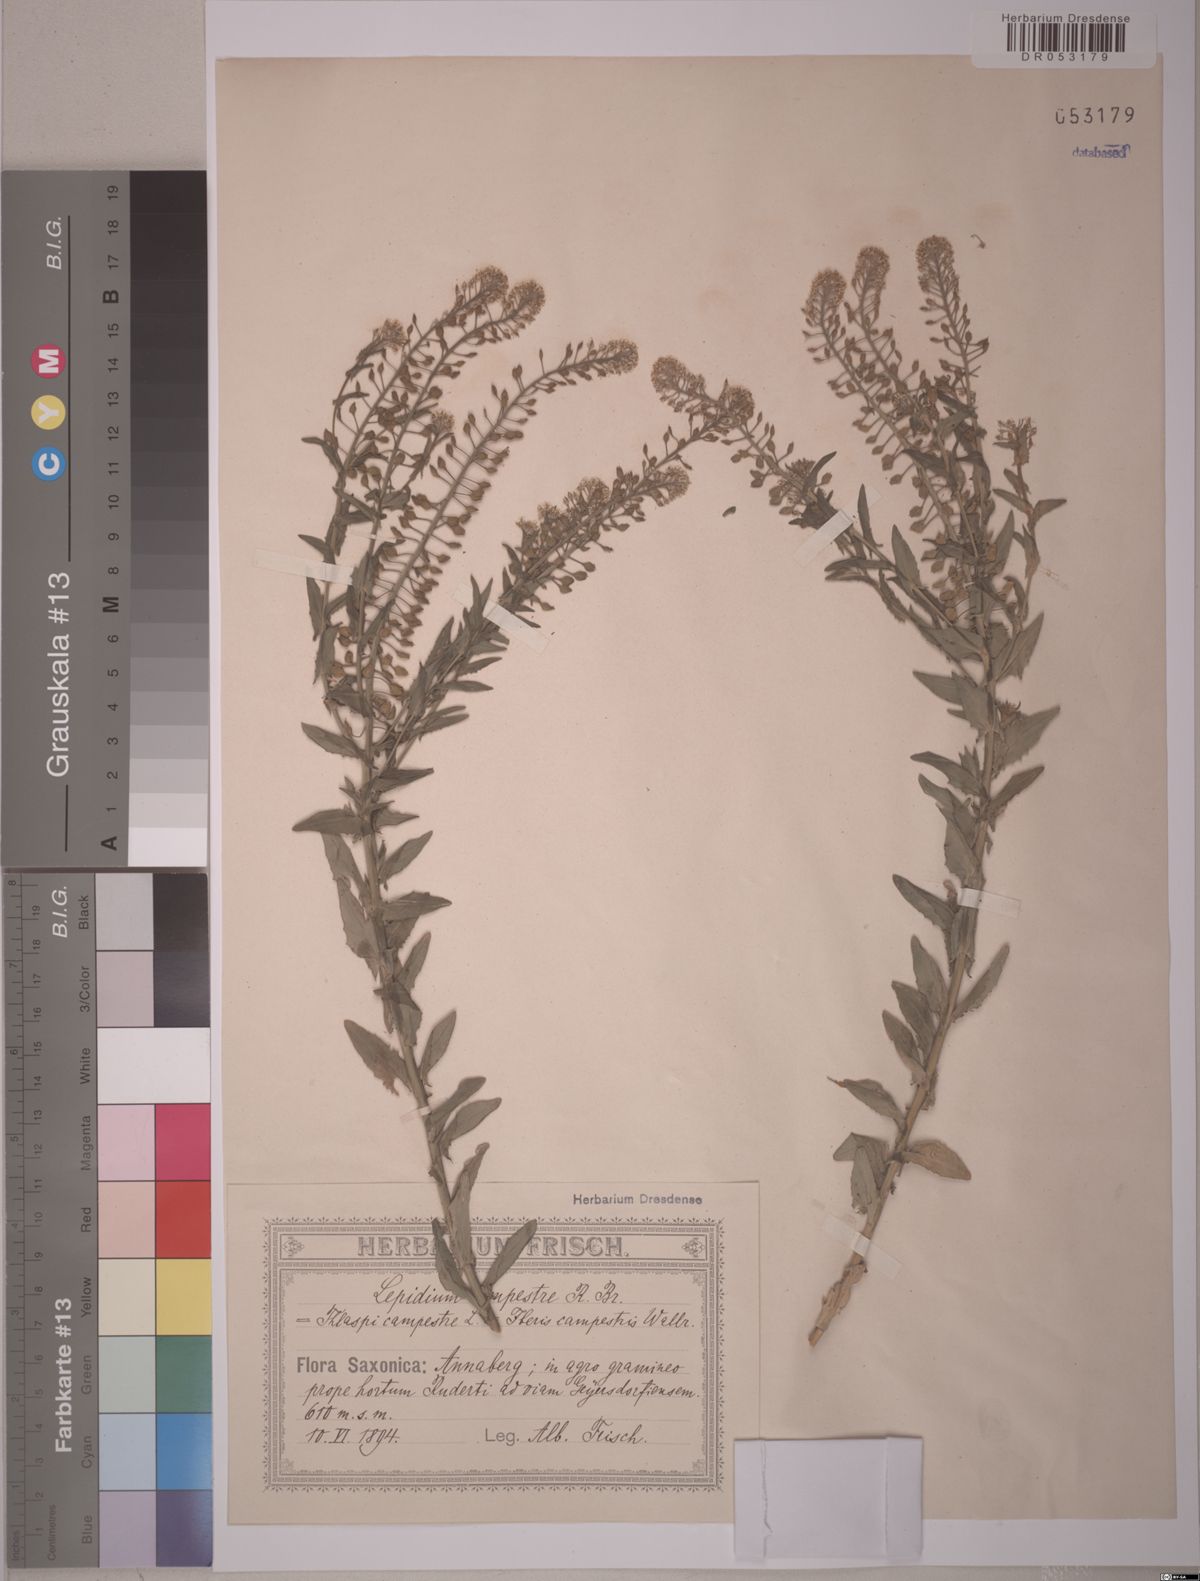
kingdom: Plantae
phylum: Tracheophyta
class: Magnoliopsida
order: Brassicales
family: Brassicaceae
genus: Lepidium
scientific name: Lepidium campestre
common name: Field pepperwort
